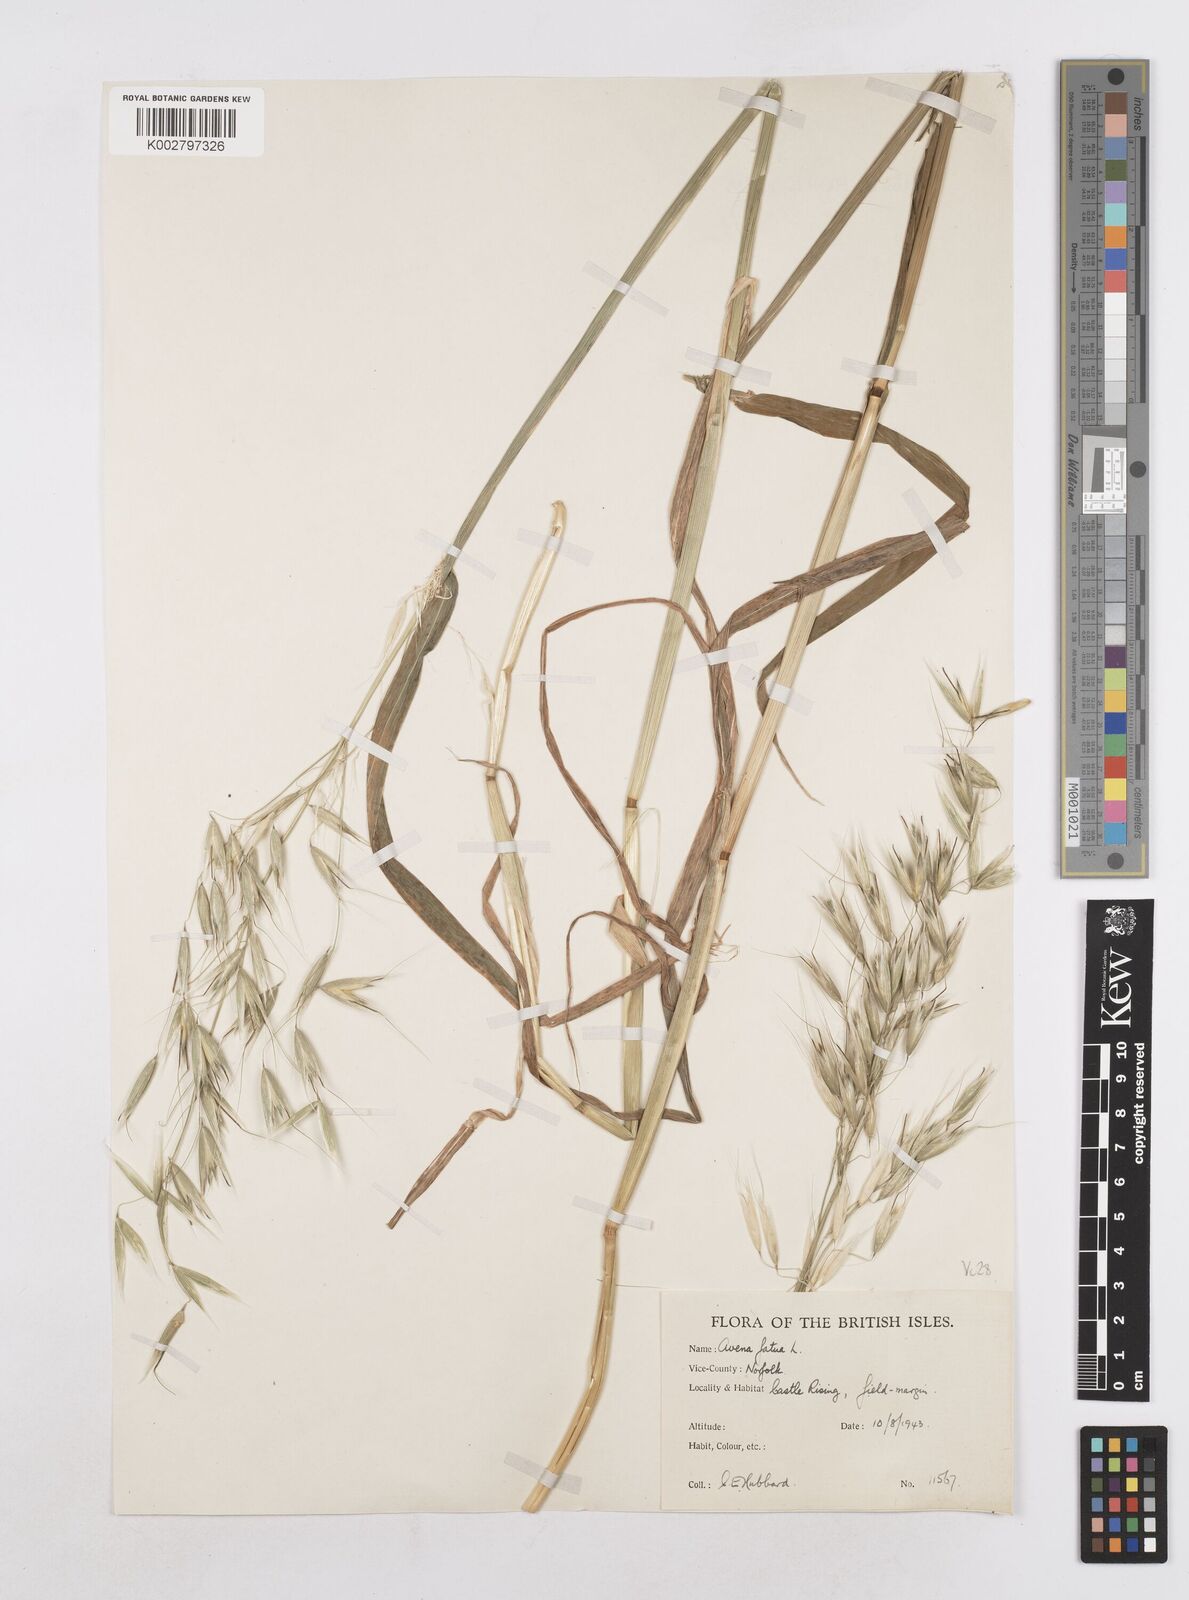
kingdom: Plantae
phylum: Tracheophyta
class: Liliopsida
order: Poales
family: Poaceae
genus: Avena
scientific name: Avena fatua
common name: Wild oat
